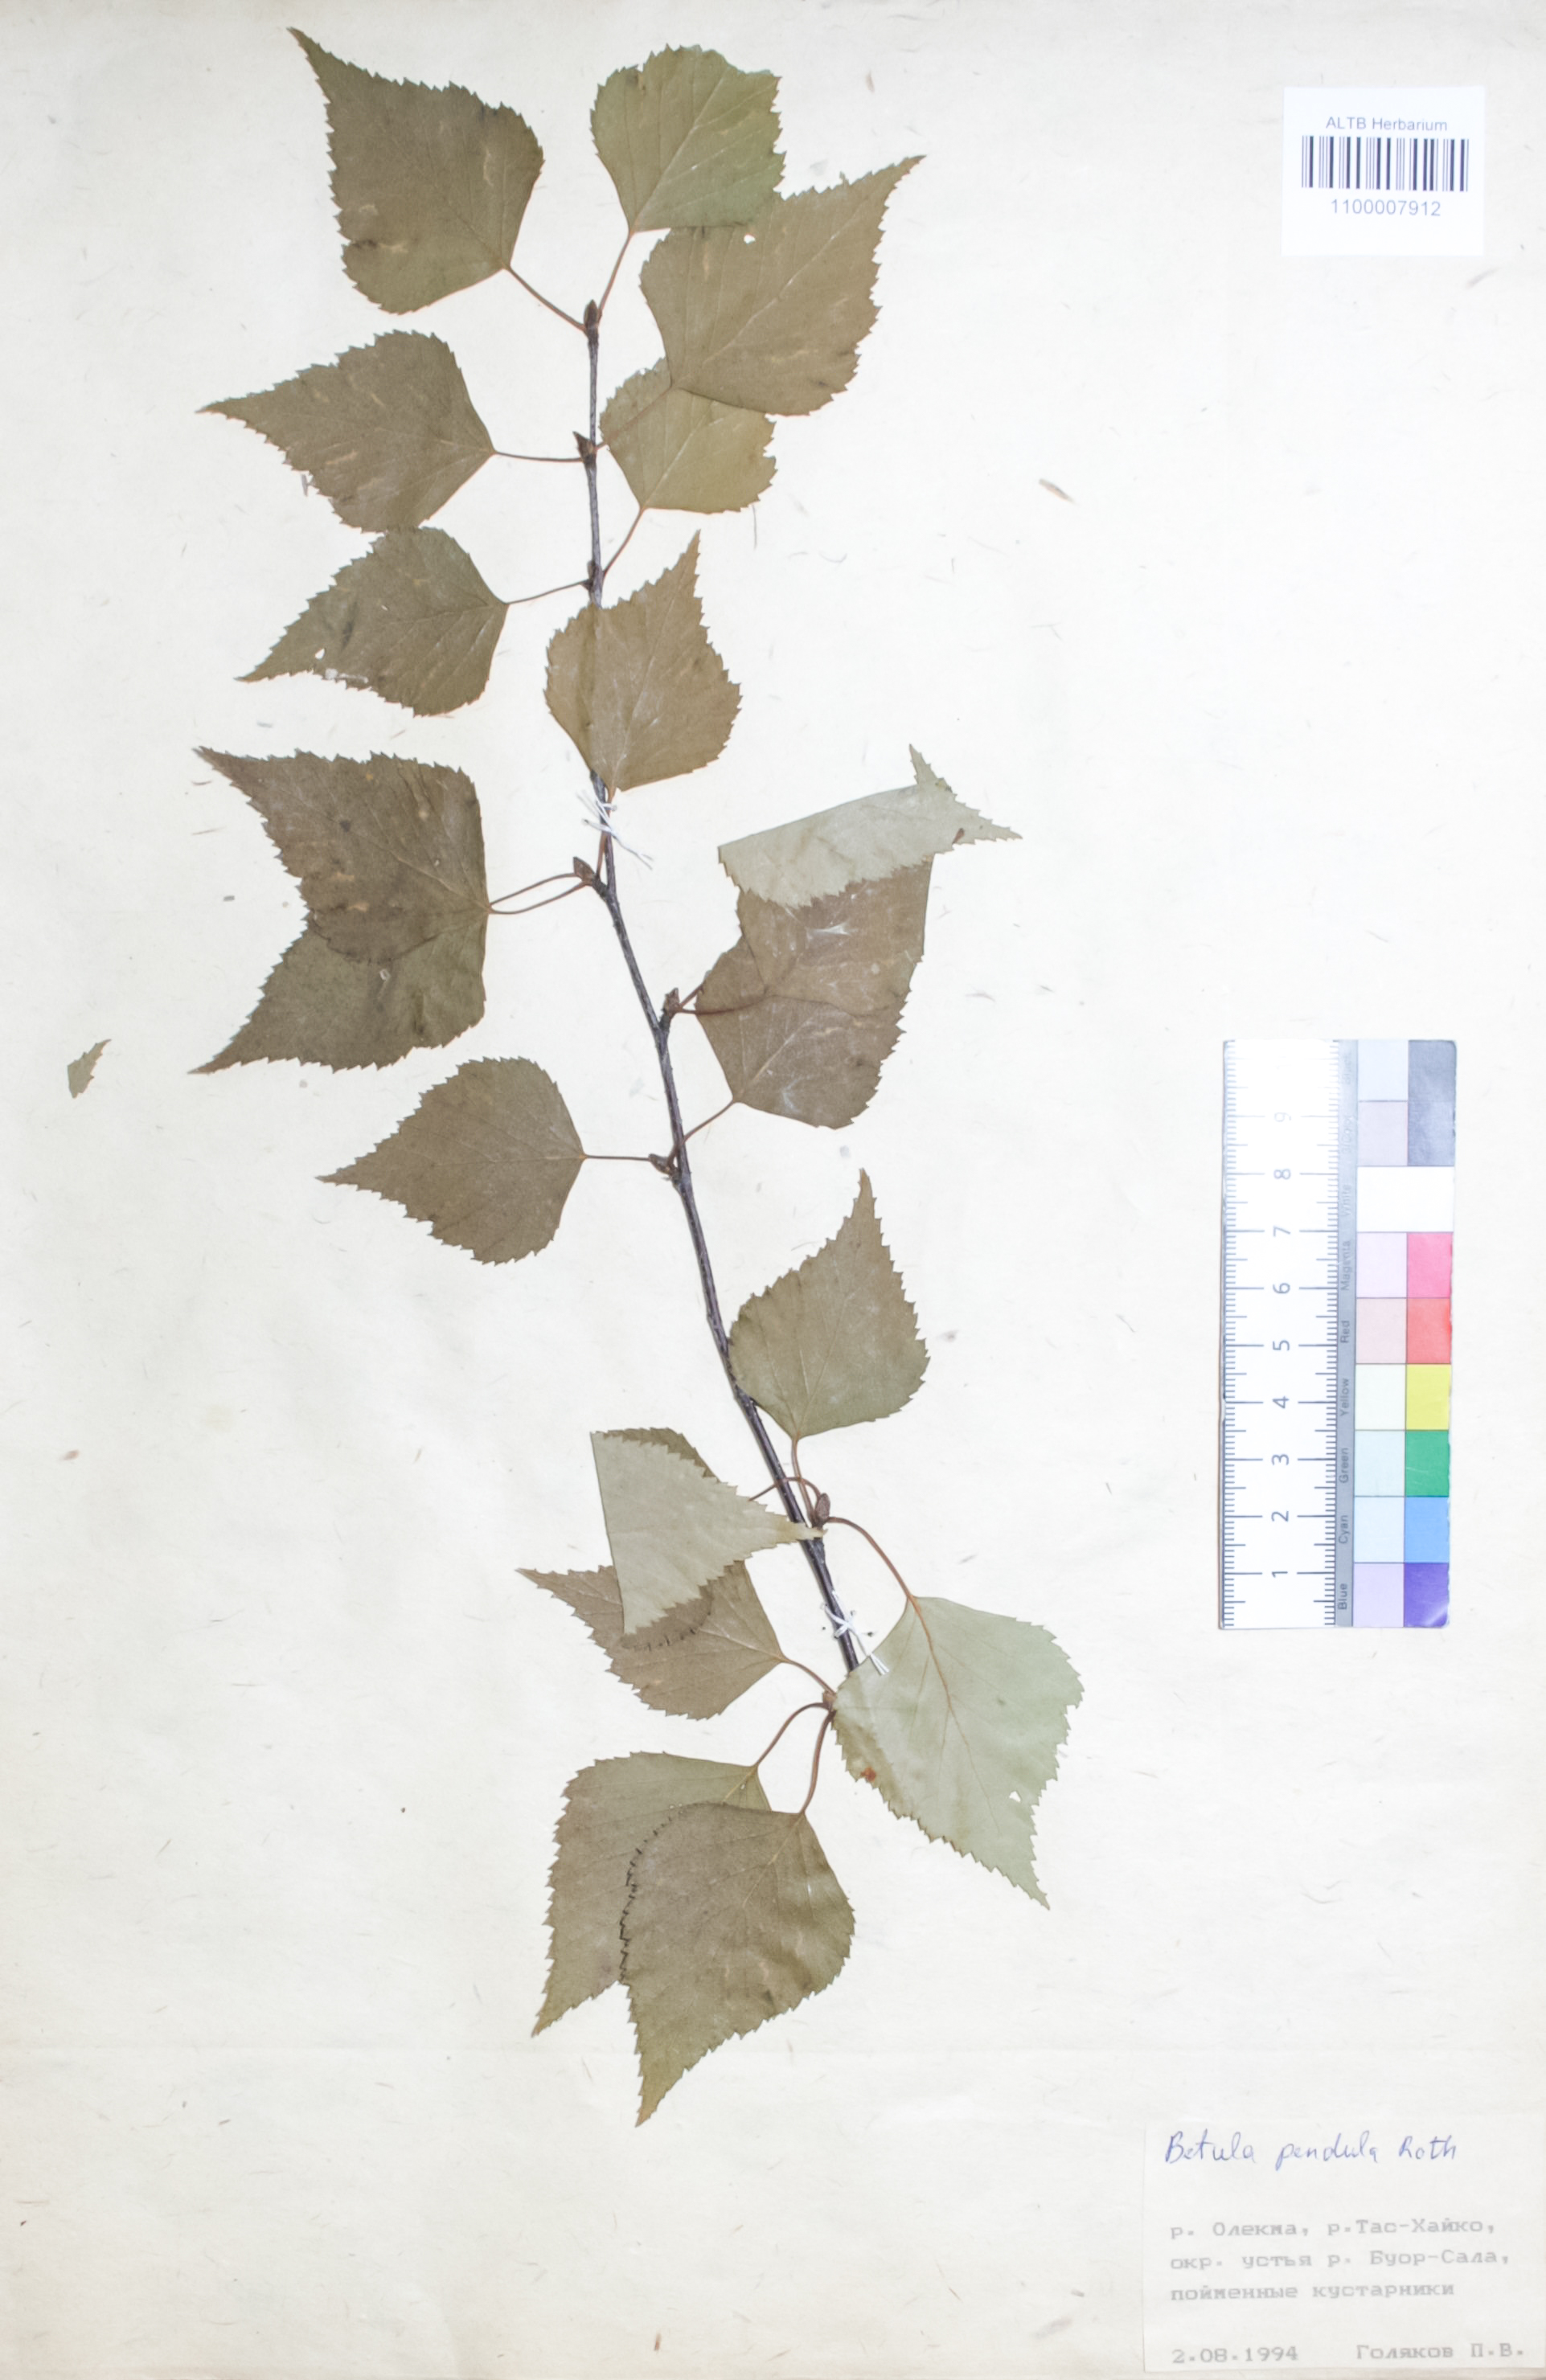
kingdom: Plantae
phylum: Tracheophyta
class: Magnoliopsida
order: Fagales
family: Betulaceae
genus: Betula
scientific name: Betula pendula
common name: Silver birch
